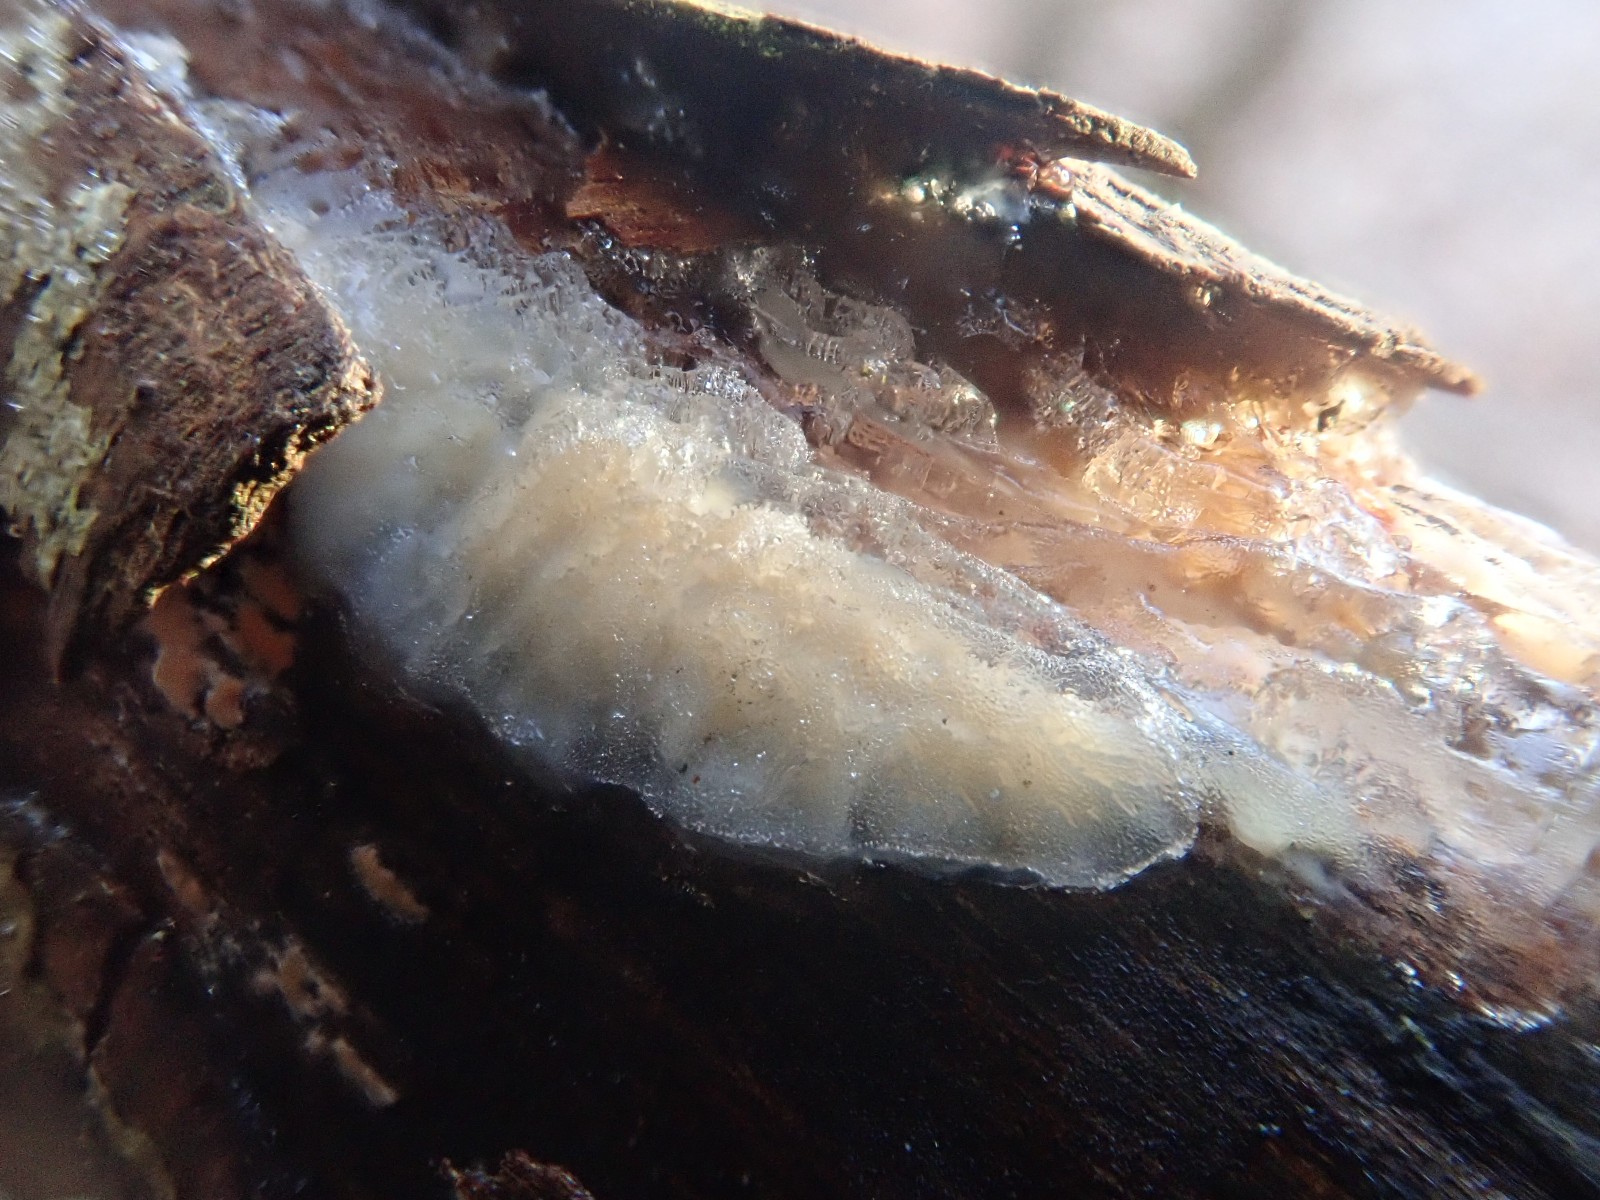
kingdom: Fungi
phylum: Basidiomycota
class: Agaricomycetes
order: Auriculariales
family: Auriculariaceae
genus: Exidia
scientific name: Exidia thuretiana
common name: hvidlig bævretop
